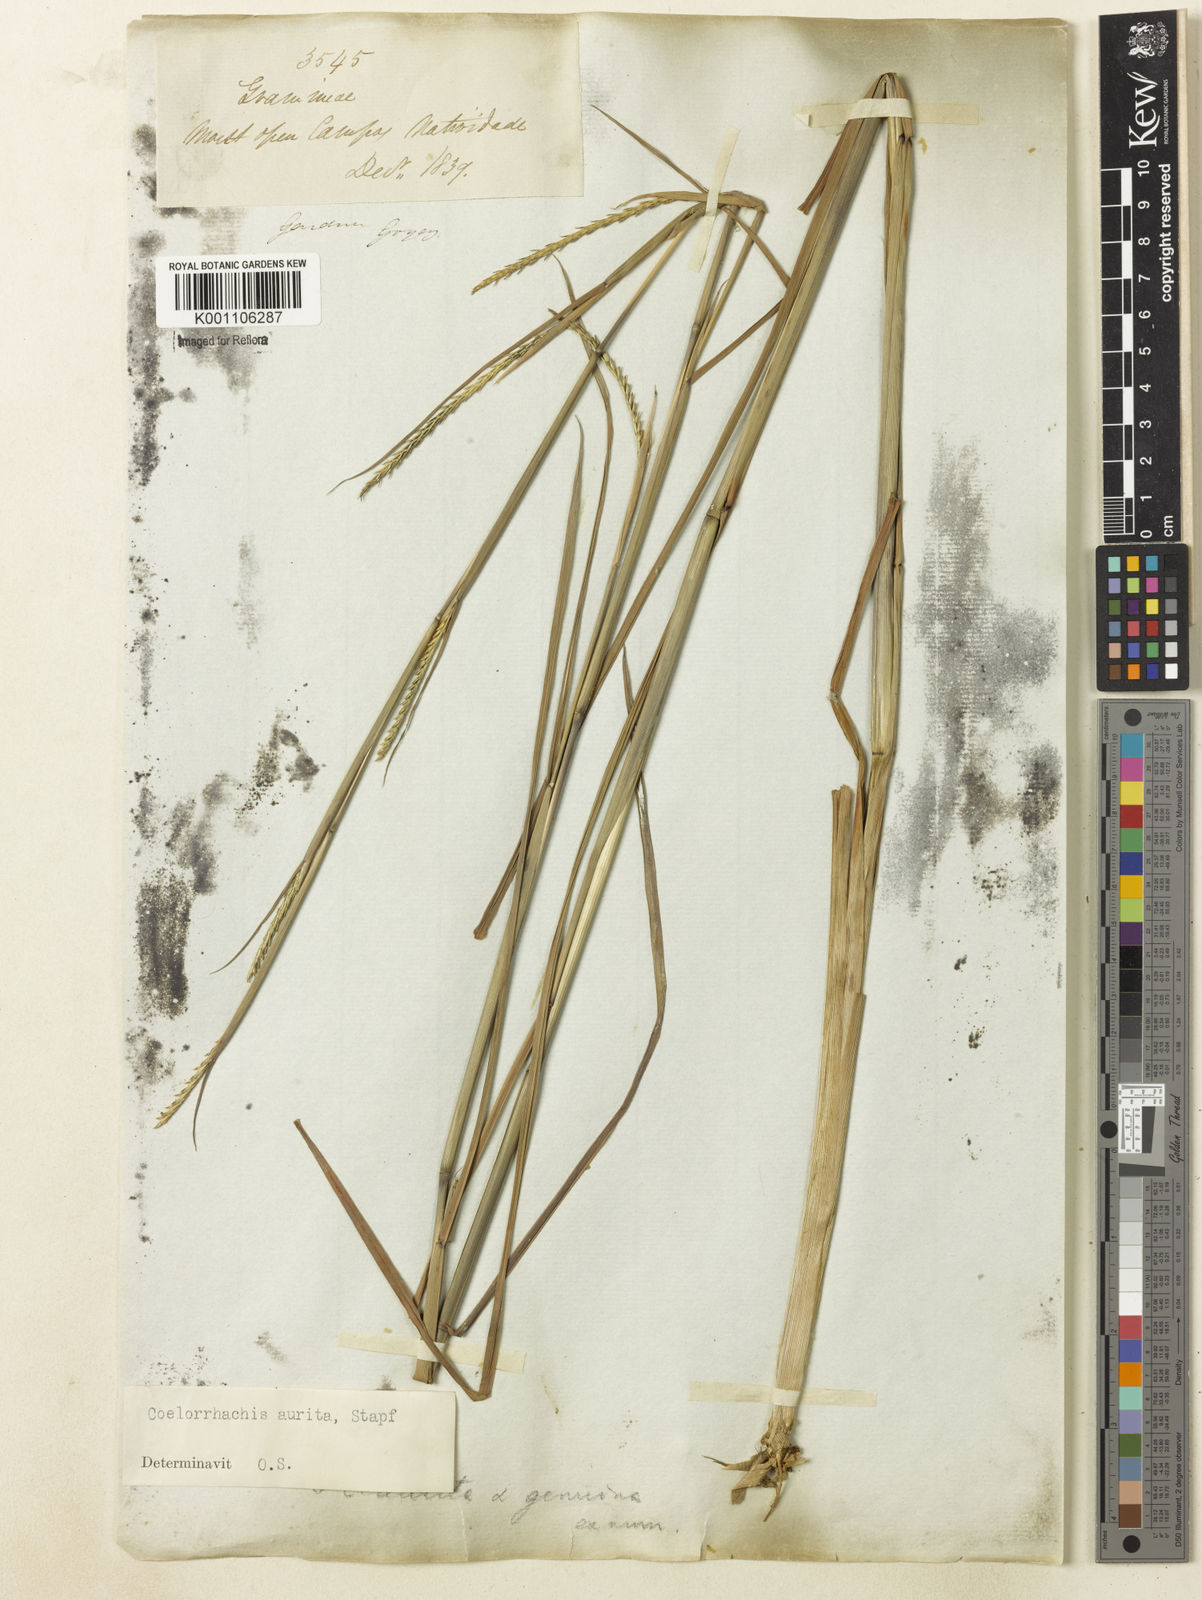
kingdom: Plantae
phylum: Tracheophyta
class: Liliopsida
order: Poales
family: Poaceae
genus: Rottboellia
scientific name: Rottboellia aurita
